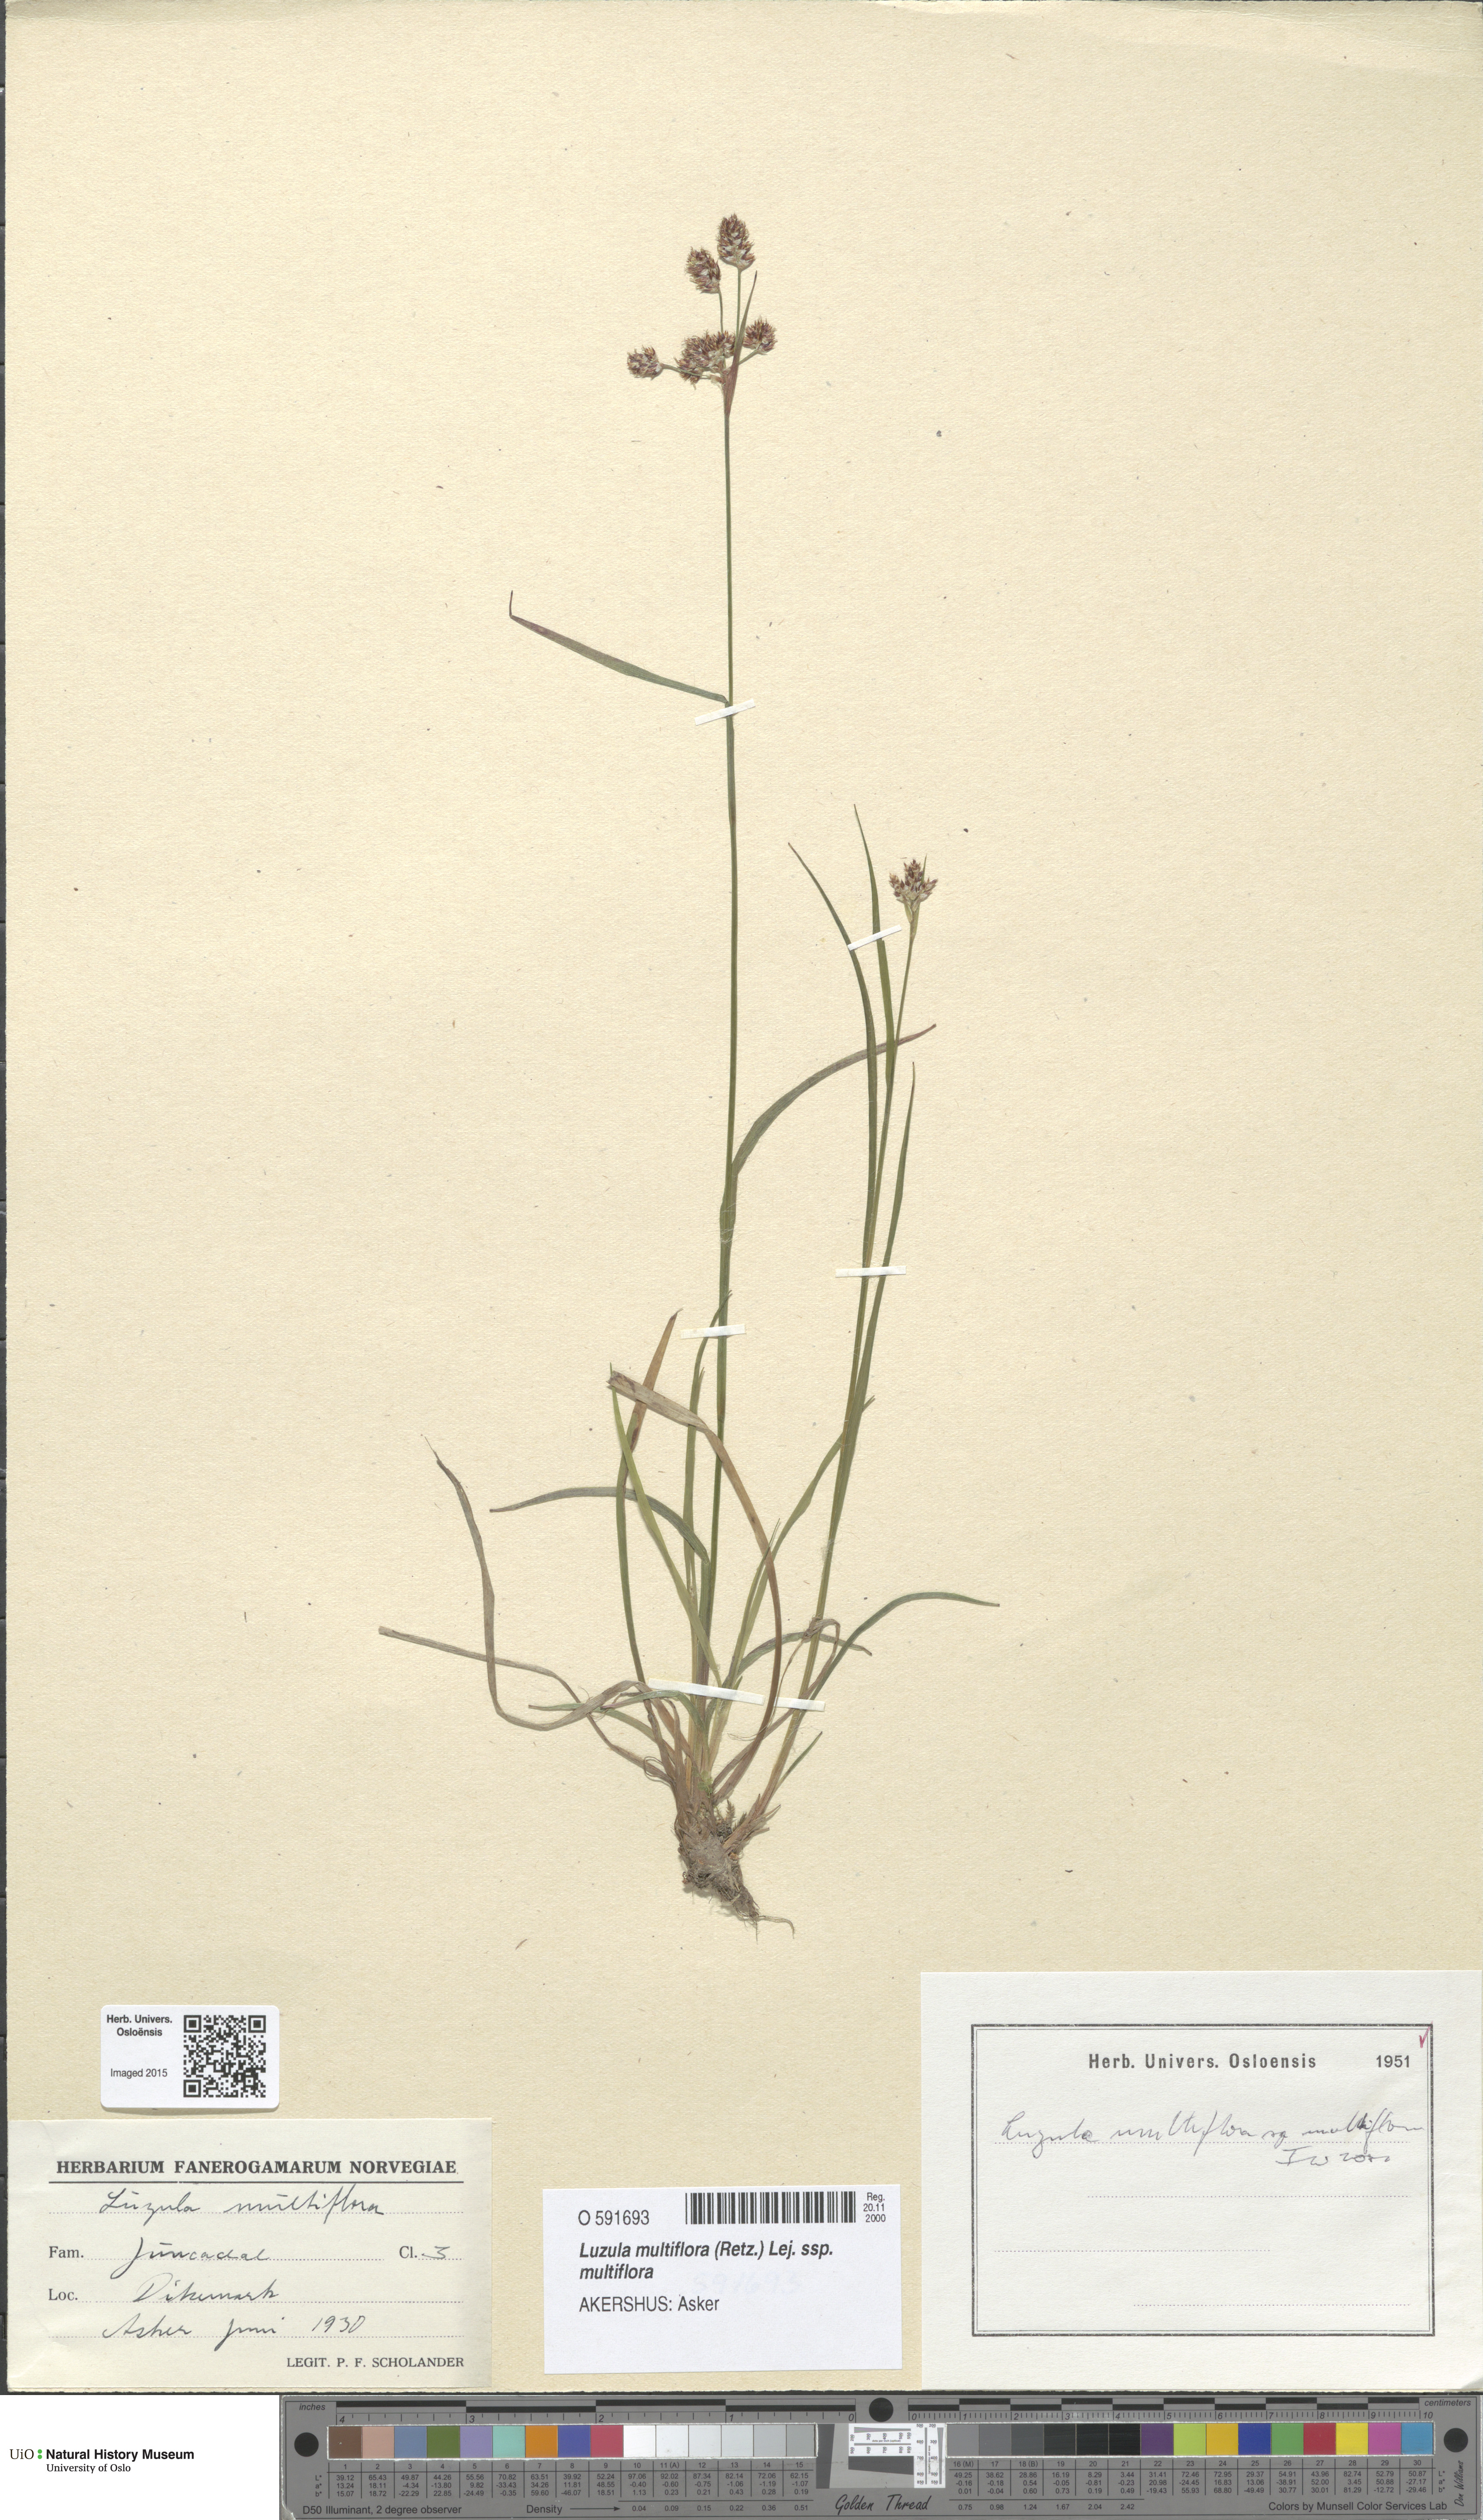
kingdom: Plantae
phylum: Tracheophyta
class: Liliopsida
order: Poales
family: Juncaceae
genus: Luzula
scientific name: Luzula multiflora
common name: Heath wood-rush
